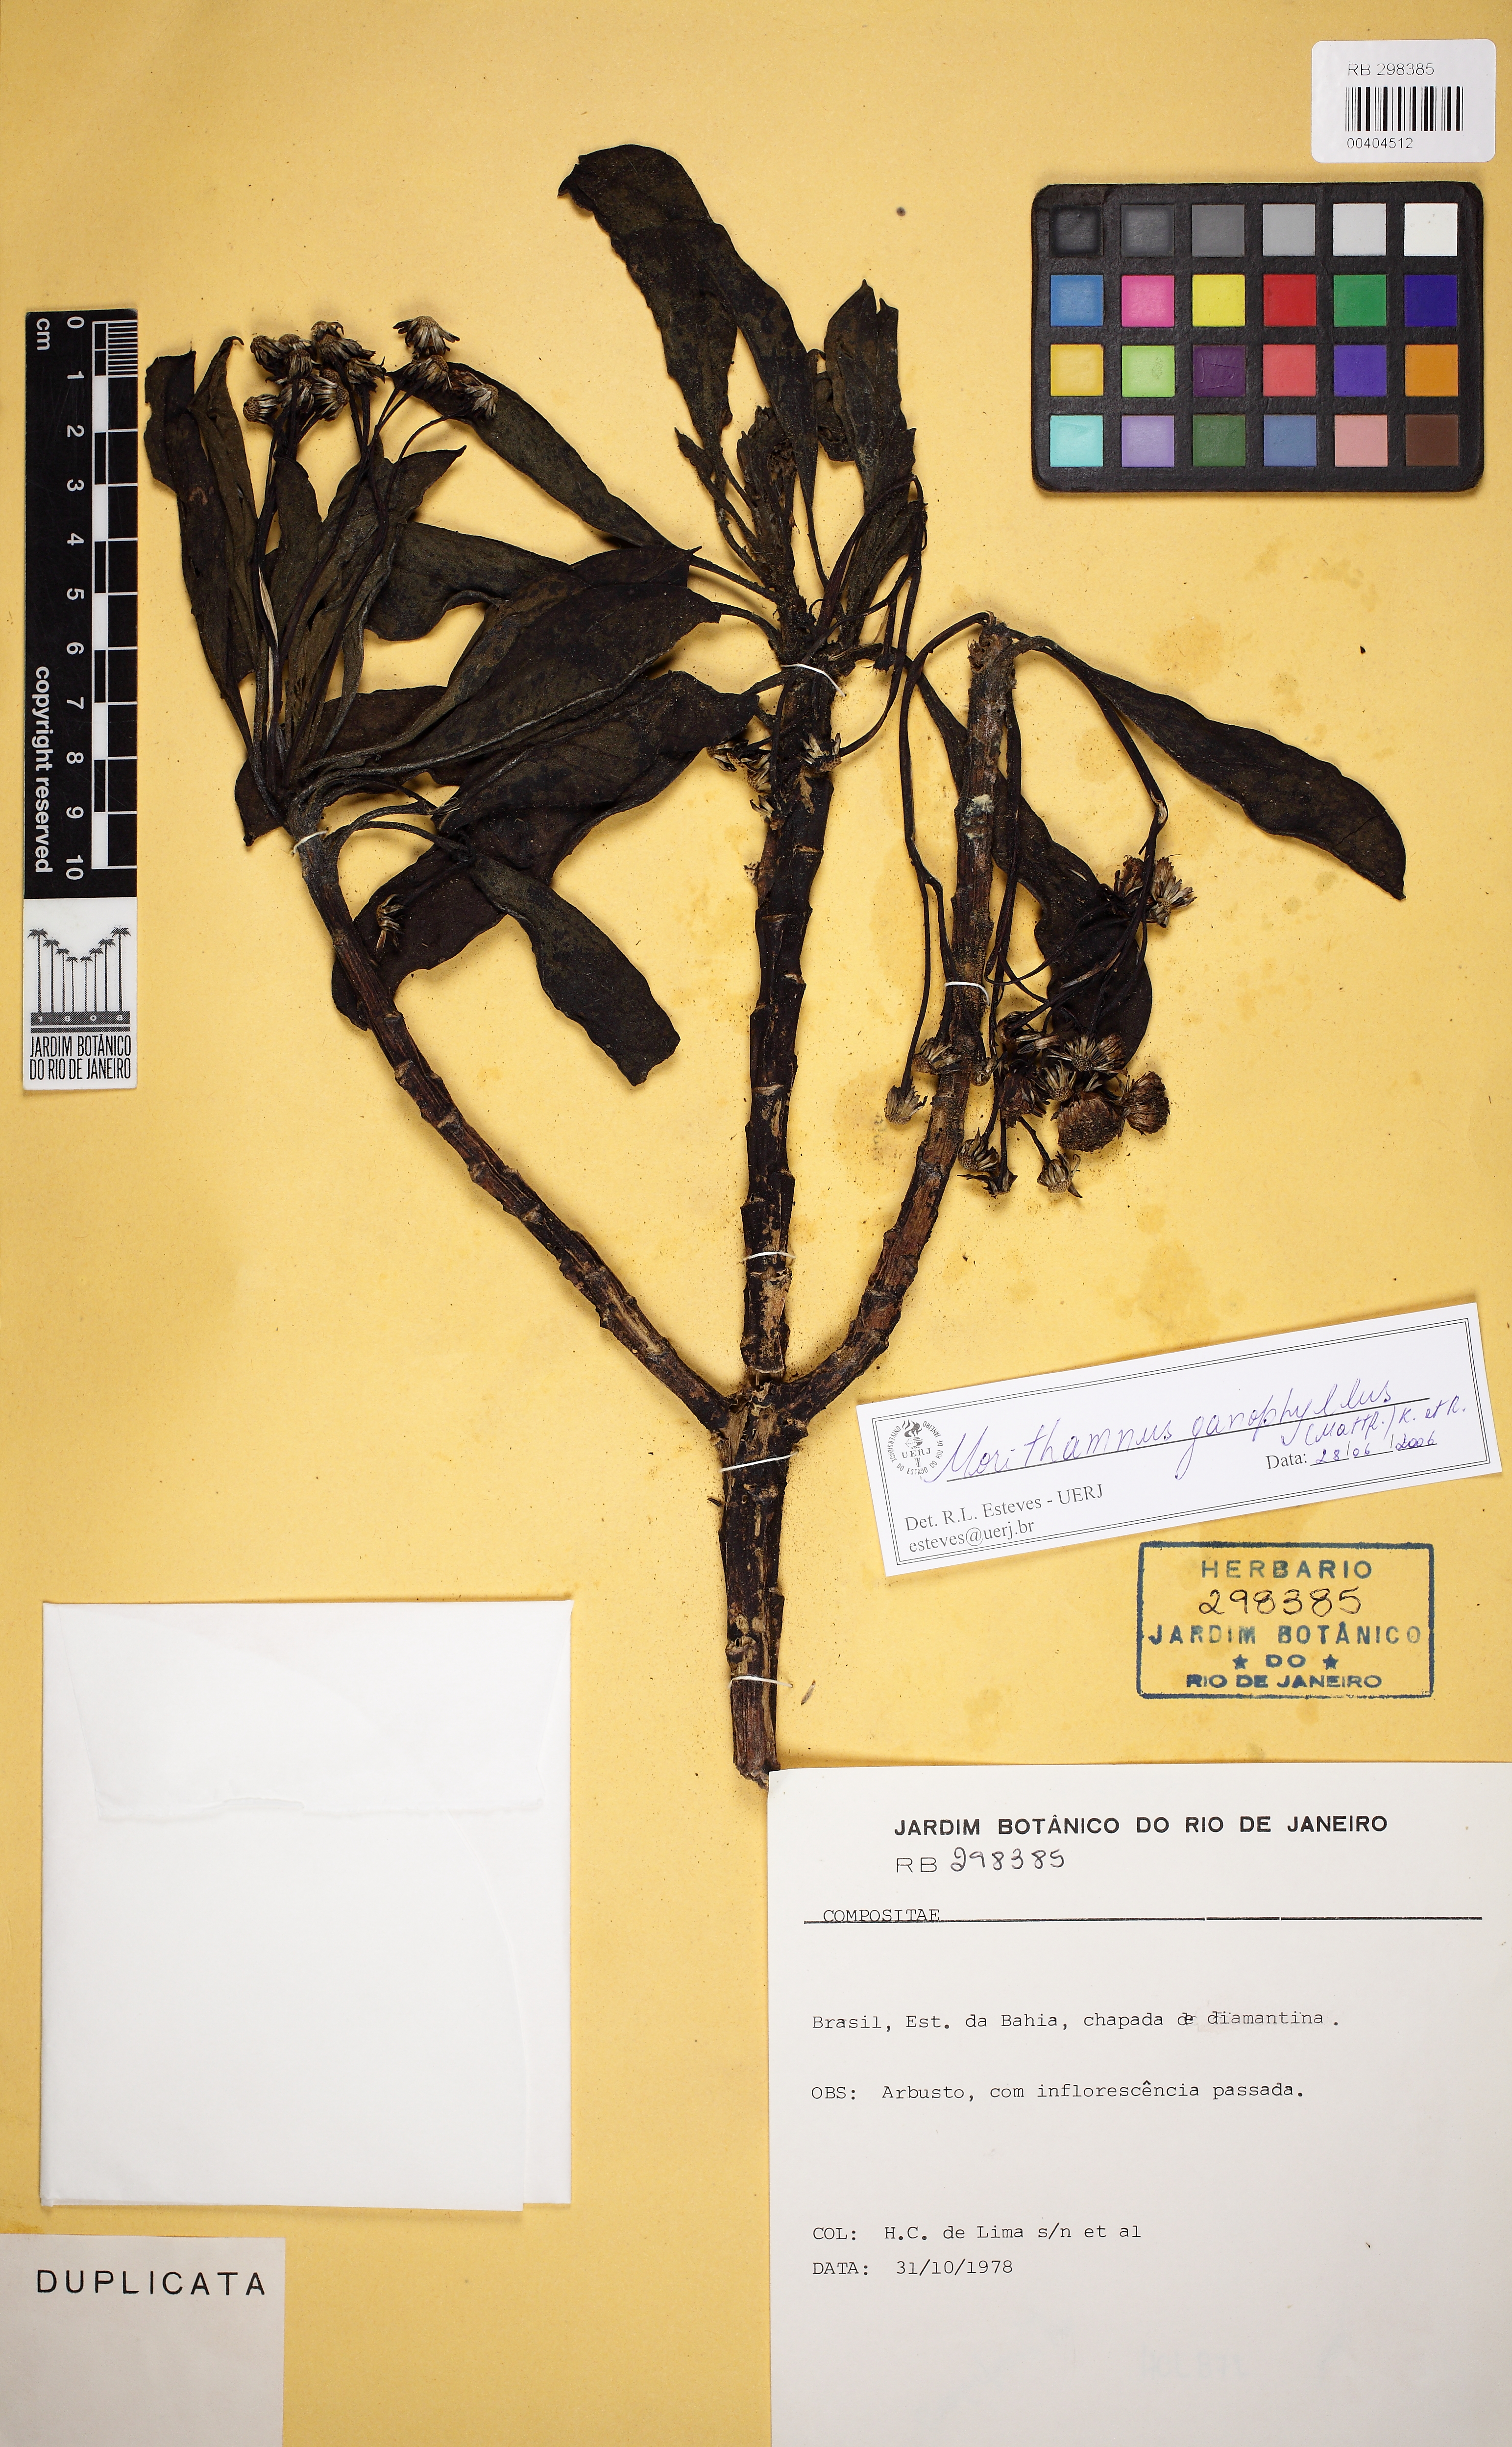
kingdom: Plantae
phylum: Tracheophyta
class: Magnoliopsida
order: Asterales
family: Asteraceae
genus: Morithamnus
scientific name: Morithamnus ganophyllus
